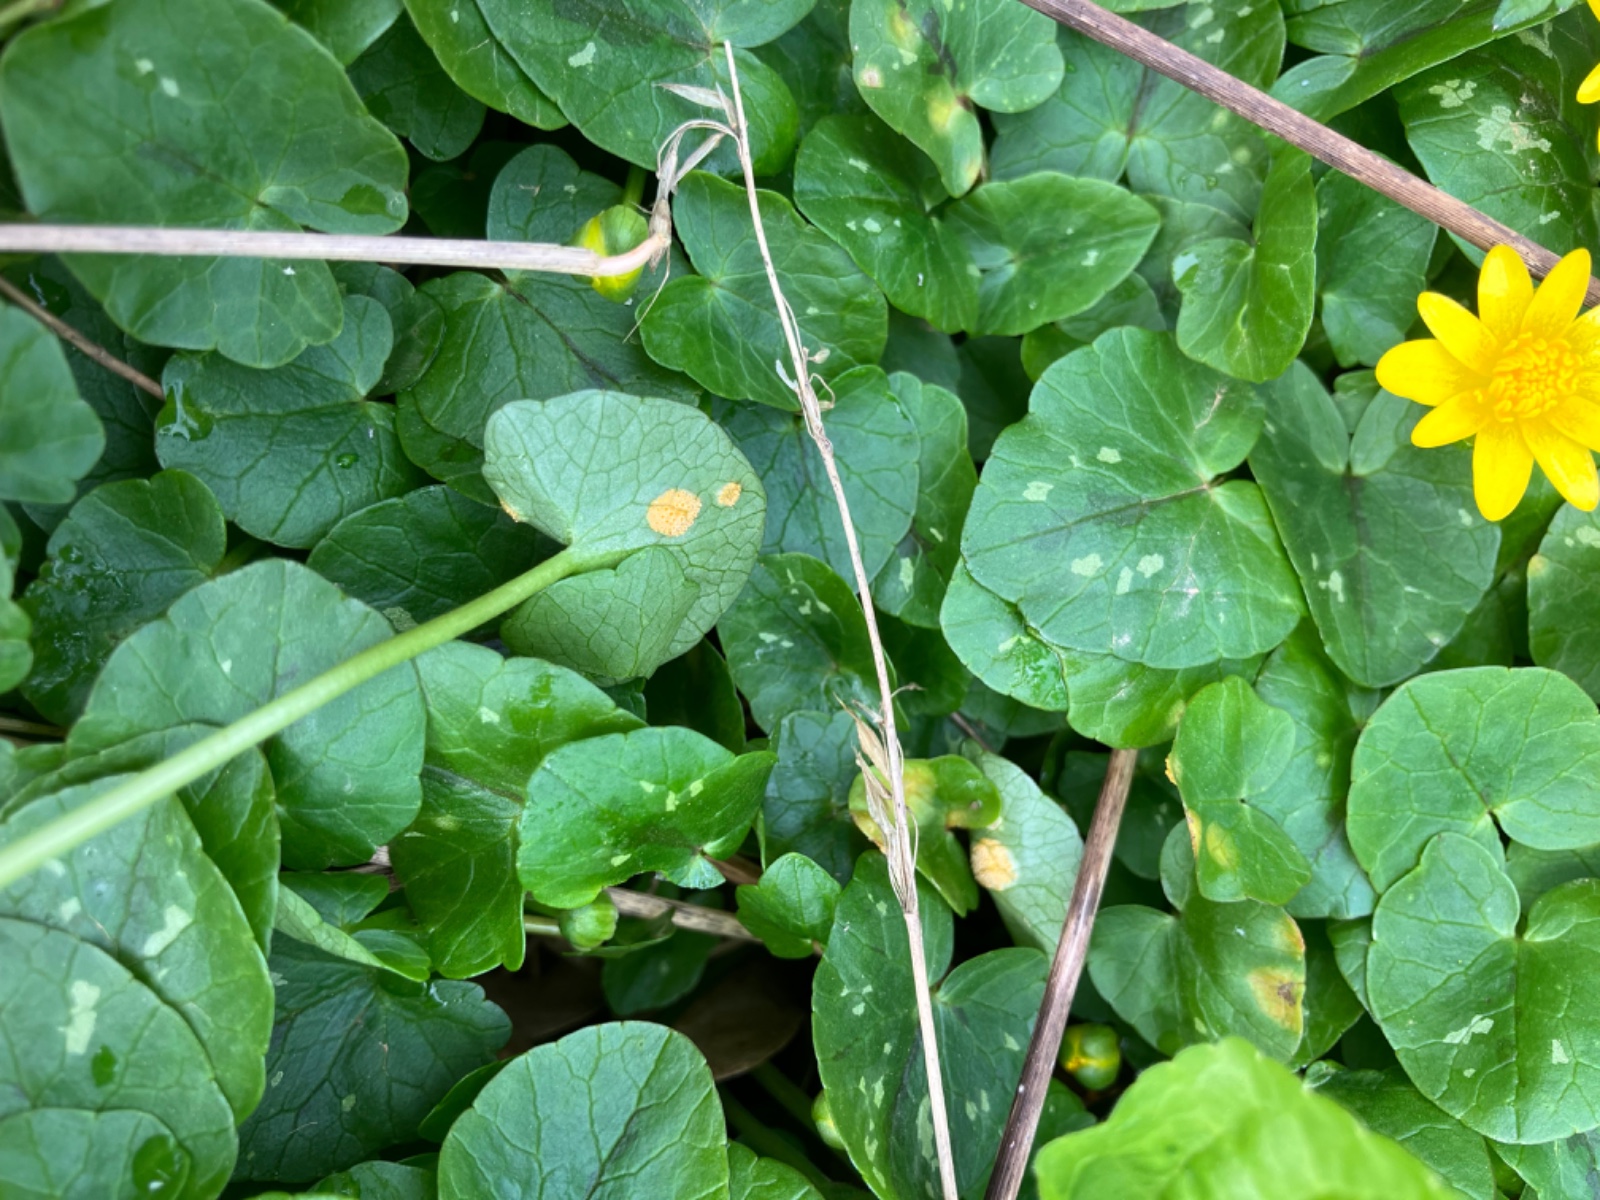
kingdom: Fungi
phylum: Basidiomycota
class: Pucciniomycetes
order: Pucciniales
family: Pucciniaceae
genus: Uromyces
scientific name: Uromyces dactylidis
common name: ranunkel-encellerust
